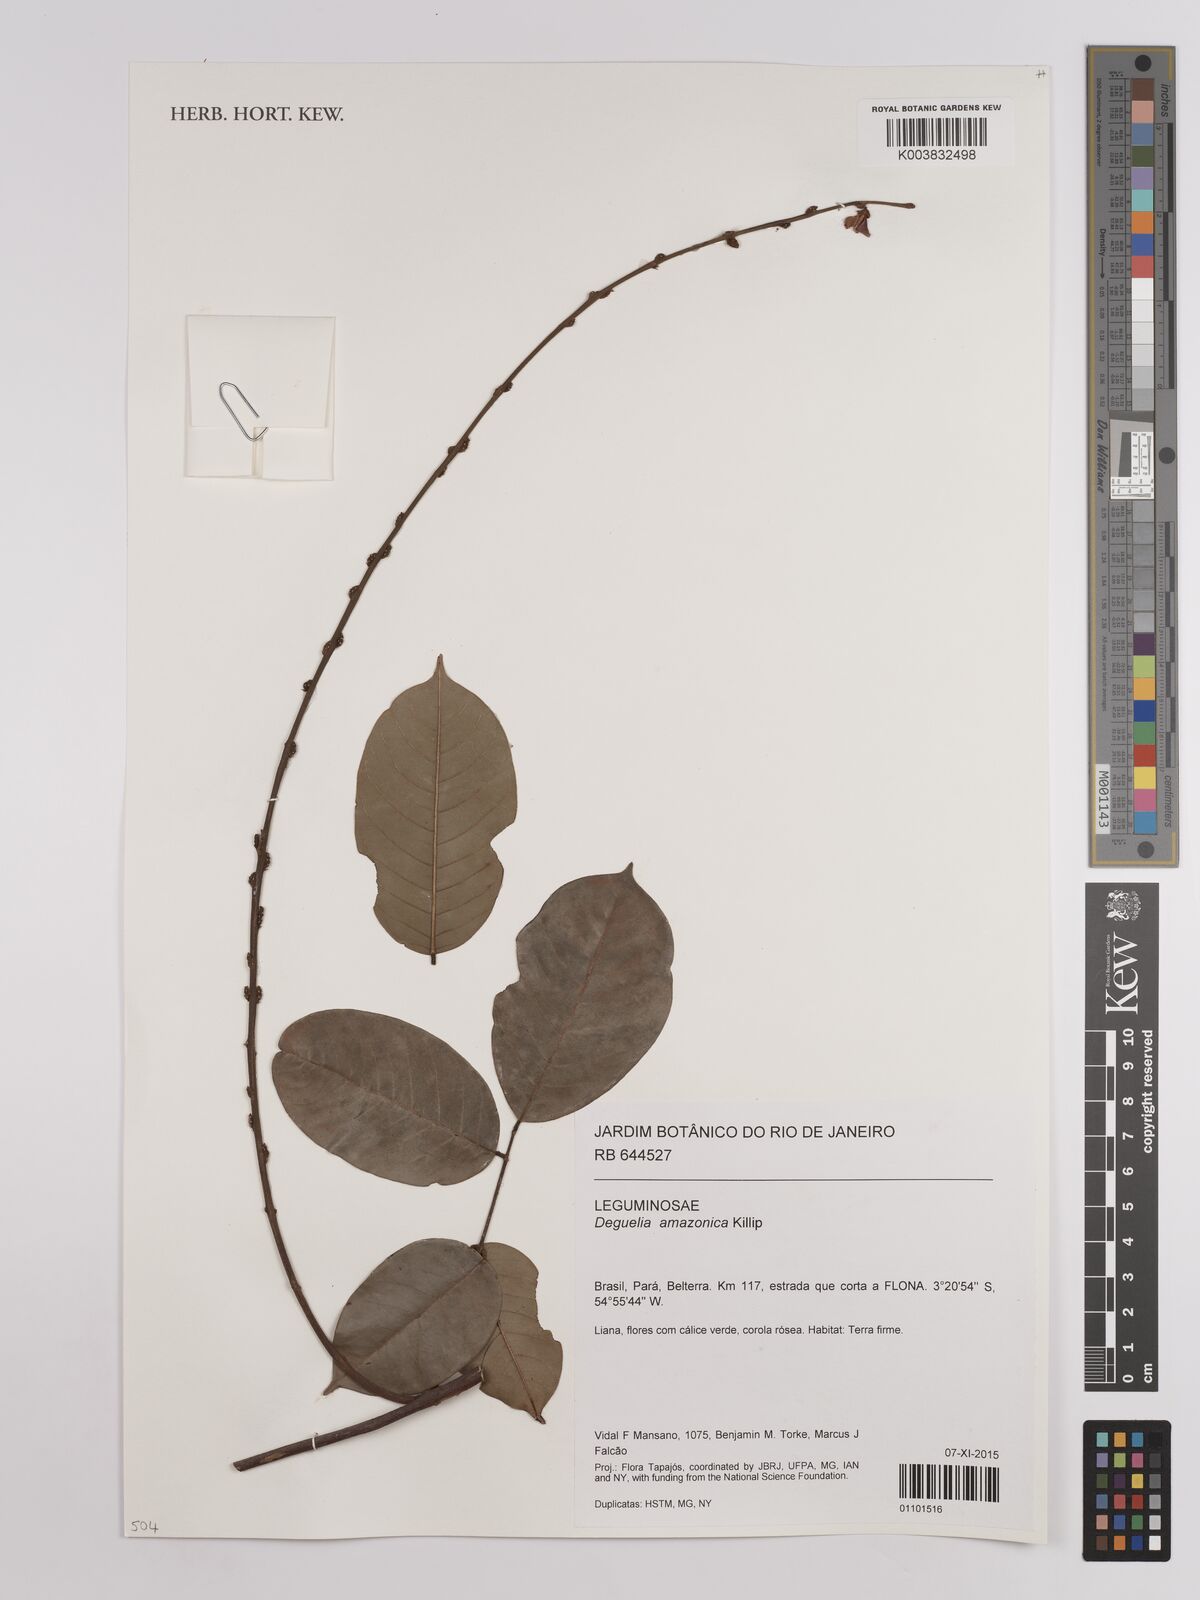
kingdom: Plantae
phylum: Tracheophyta
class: Magnoliopsida
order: Fabales
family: Fabaceae
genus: Deguelia
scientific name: Deguelia amazonica
